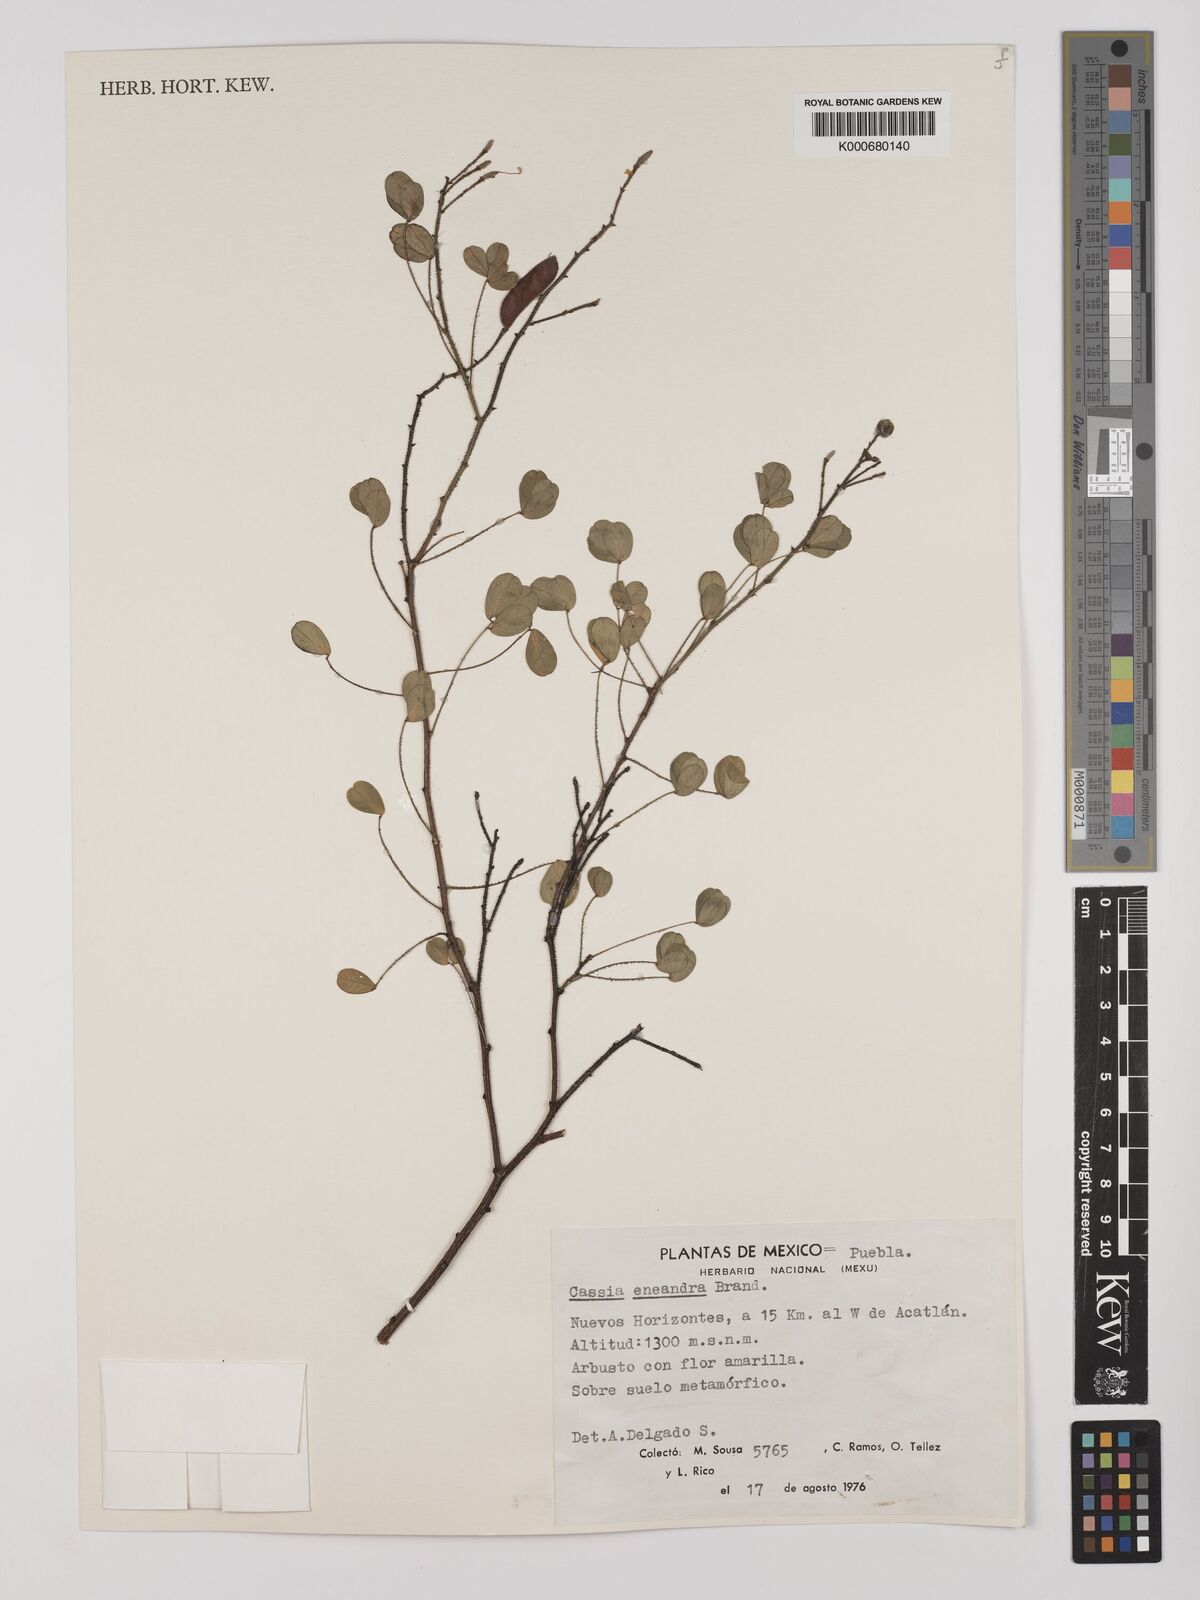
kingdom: Plantae
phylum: Tracheophyta
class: Magnoliopsida
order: Fabales
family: Fabaceae
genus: Chamaecrista
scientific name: Chamaecrista zygophylloides
